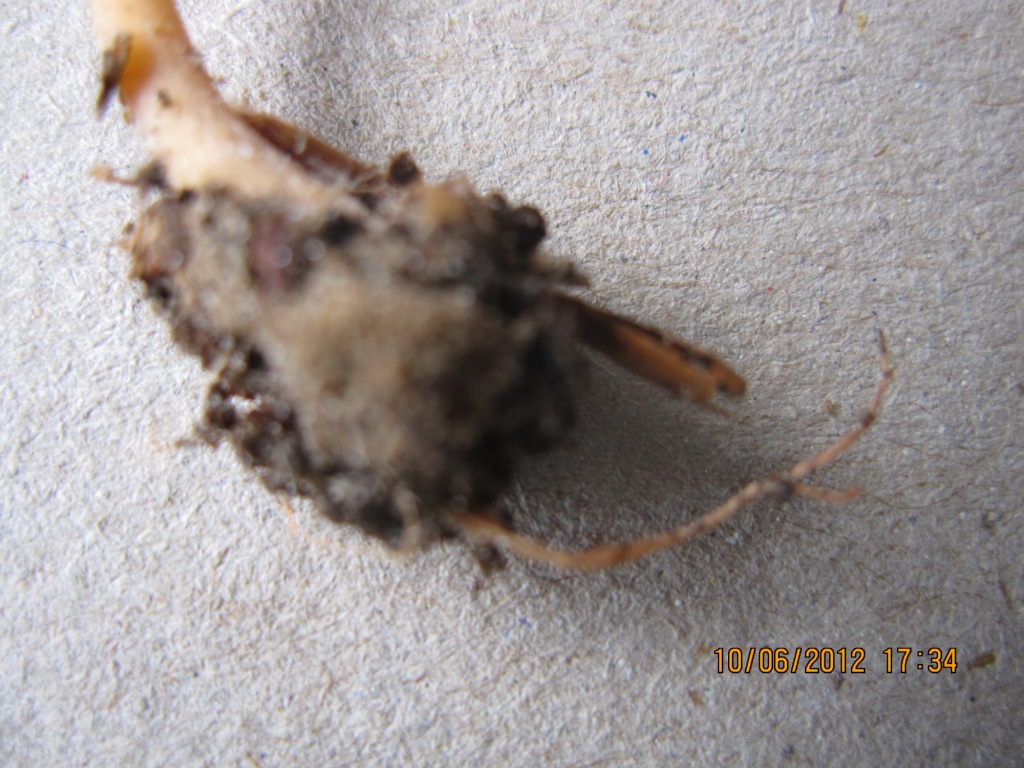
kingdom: Fungi
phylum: Basidiomycota
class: Agaricomycetes
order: Agaricales
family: Omphalotaceae
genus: Gymnopus
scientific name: Gymnopus aquosus
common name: bleg fladhat
